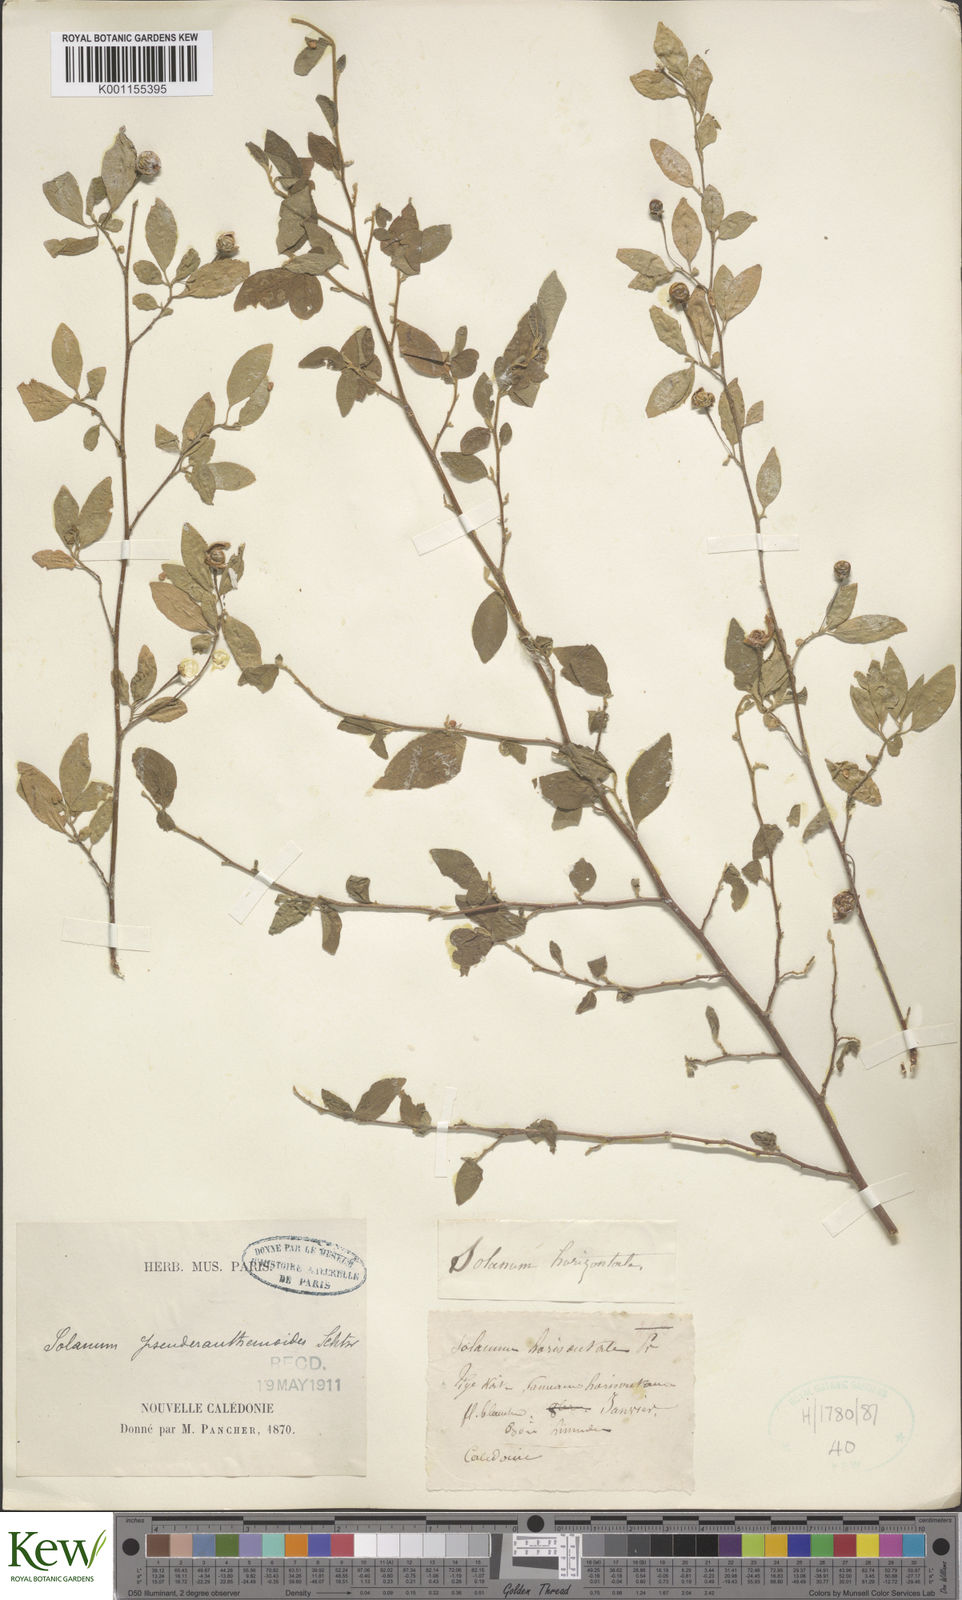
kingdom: Plantae
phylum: Tracheophyta
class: Magnoliopsida
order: Solanales
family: Solanaceae
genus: Solanum
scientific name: Solanum pseuderanthemoides
